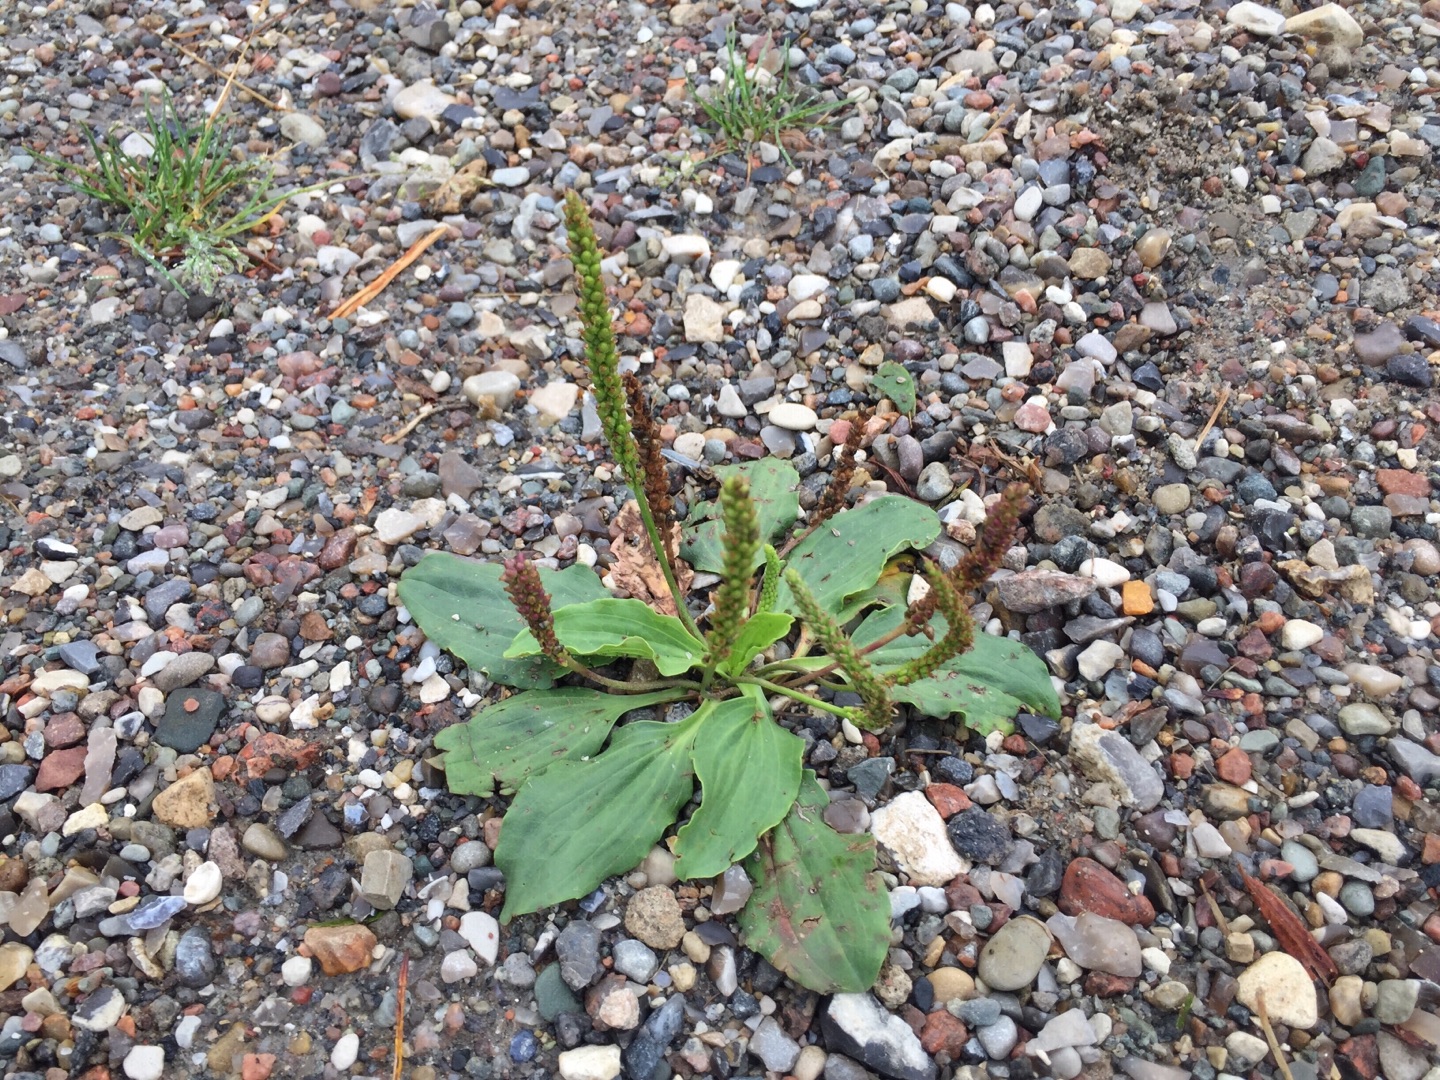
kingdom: Plantae
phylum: Tracheophyta
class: Magnoliopsida
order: Lamiales
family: Plantaginaceae
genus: Plantago
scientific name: Plantago major
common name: Glat vejbred
